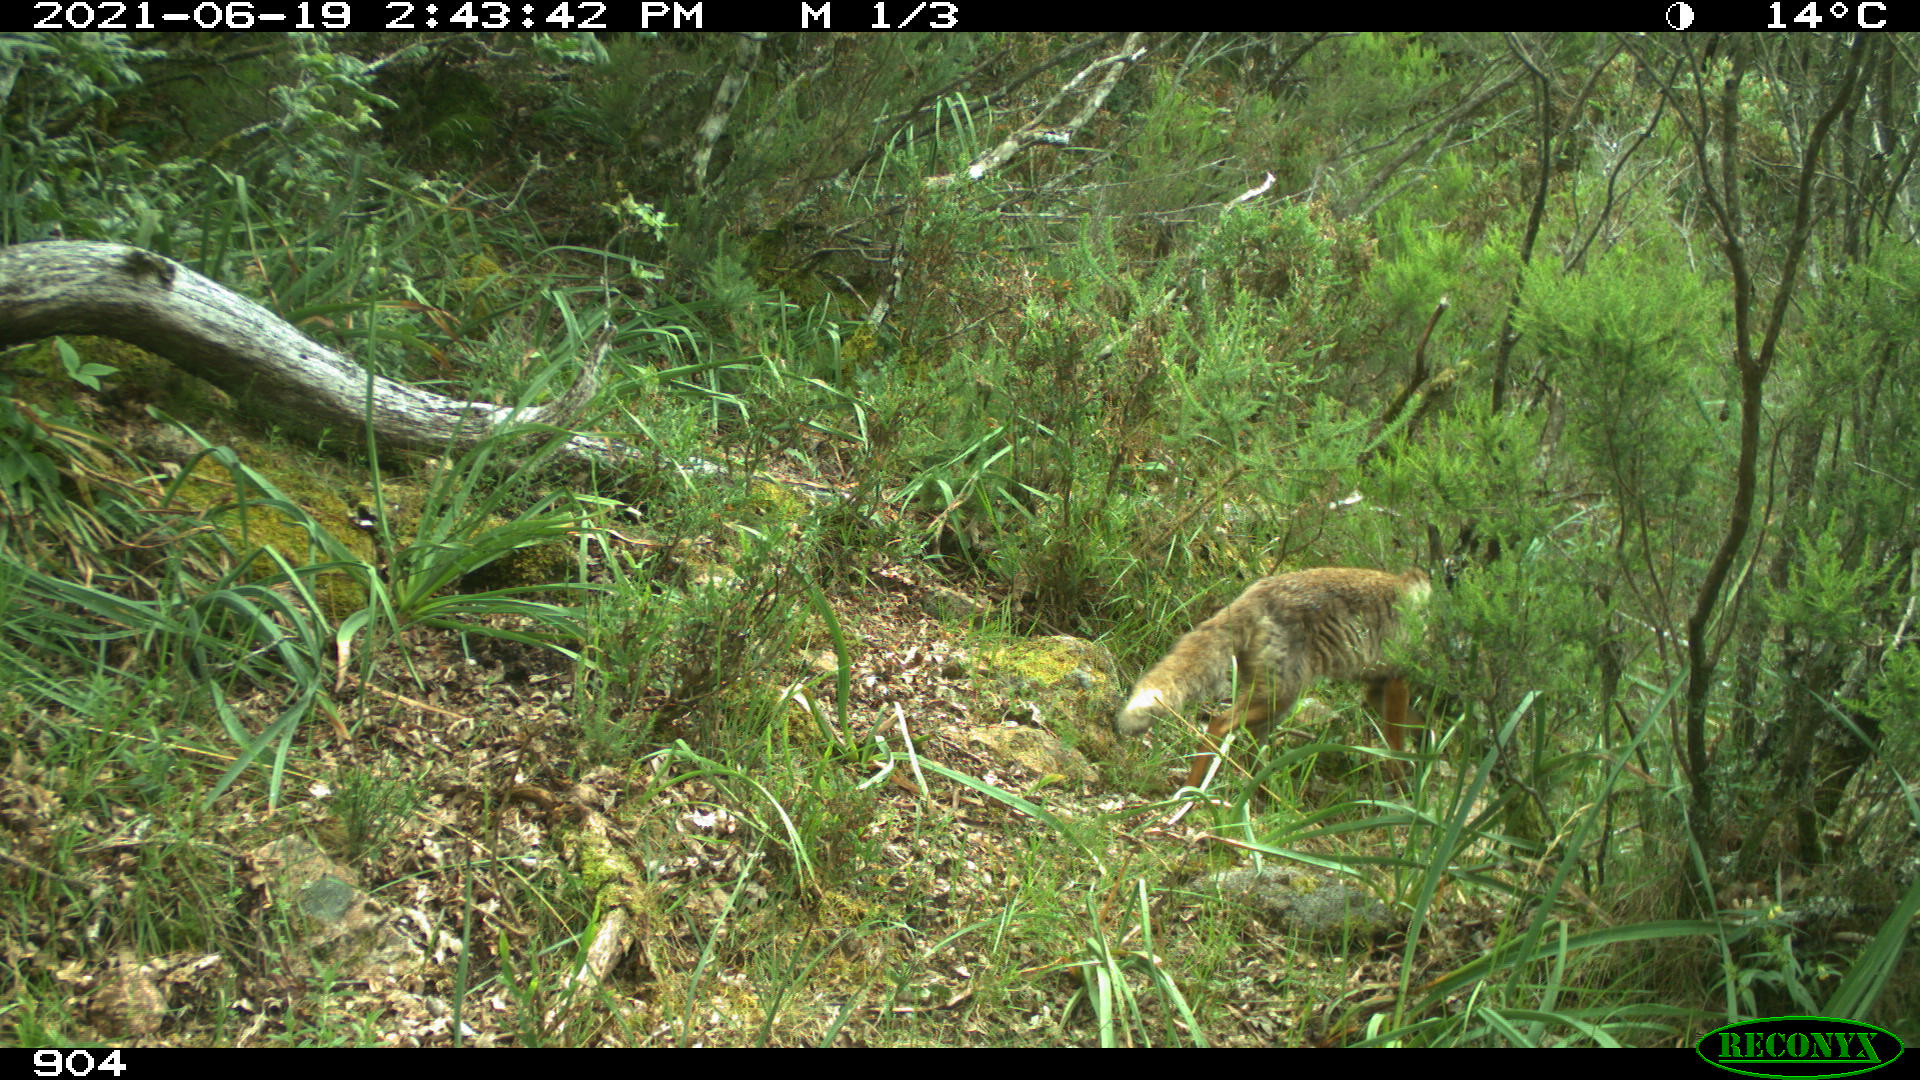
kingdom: Animalia
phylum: Chordata
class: Mammalia
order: Carnivora
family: Canidae
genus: Vulpes
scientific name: Vulpes vulpes
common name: Red fox
